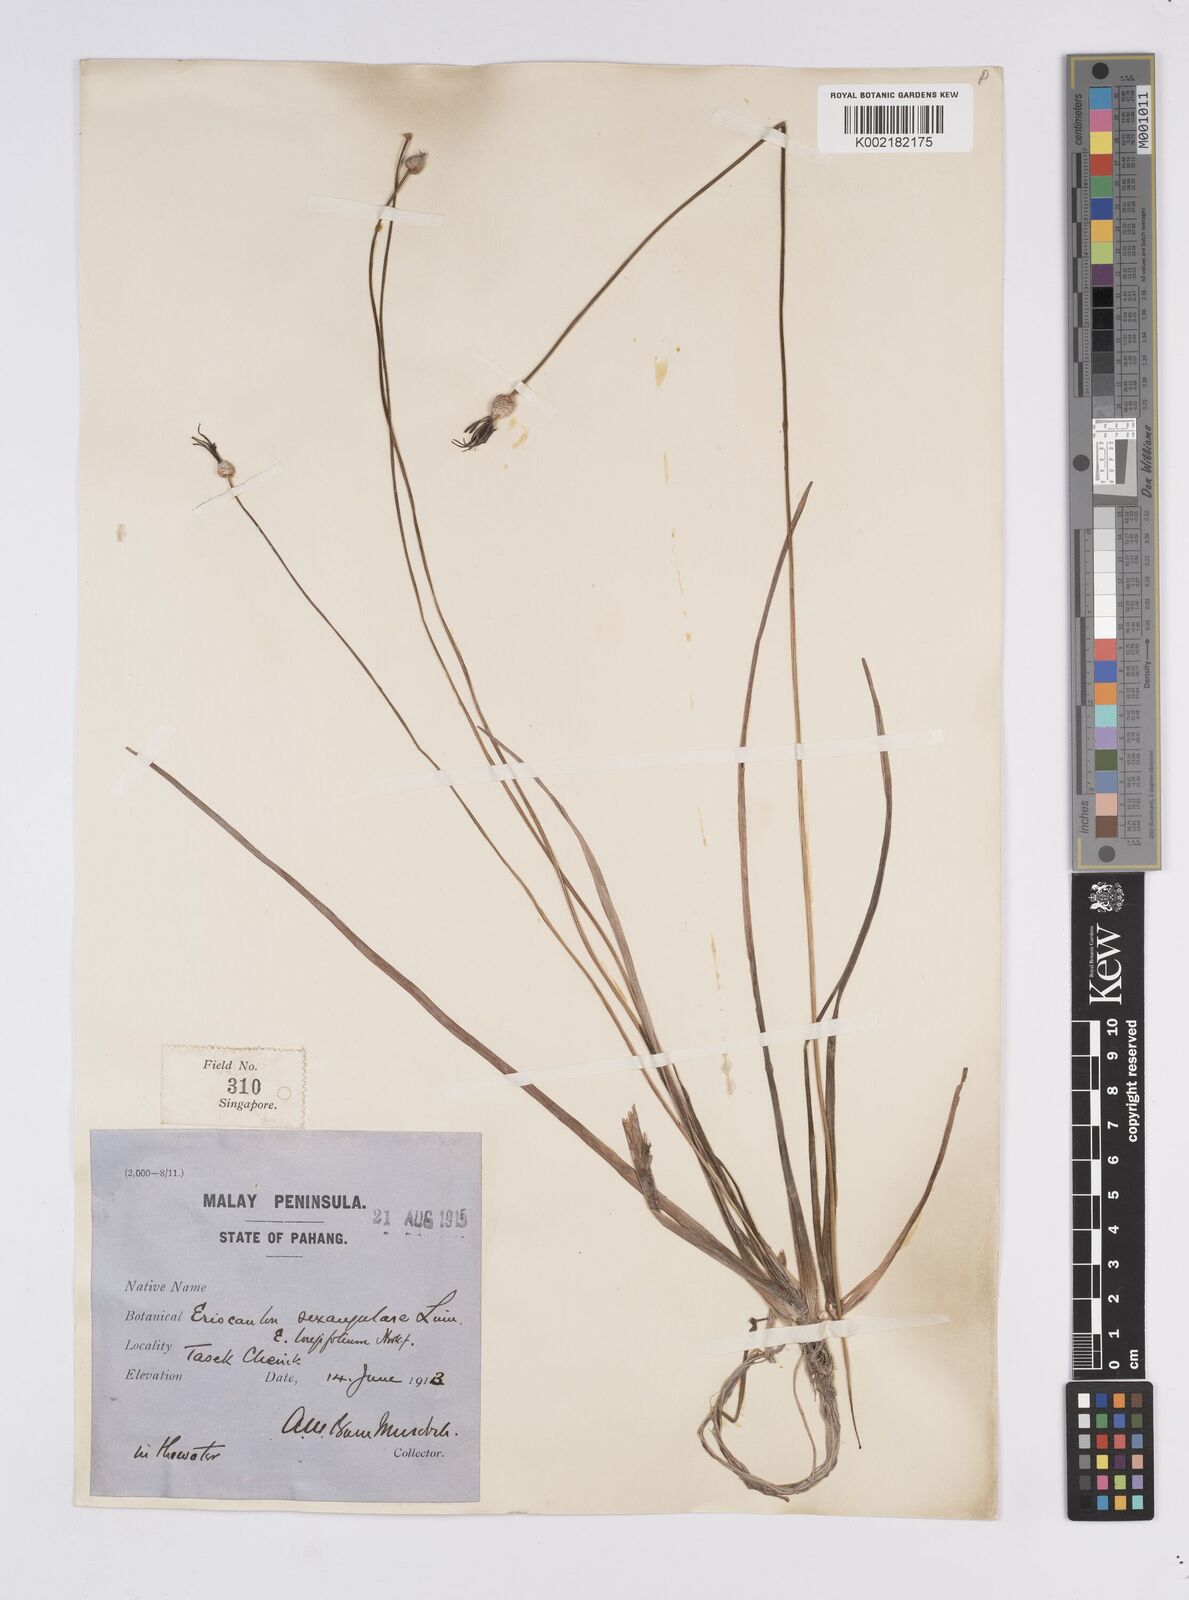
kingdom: Plantae
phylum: Tracheophyta
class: Liliopsida
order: Poales
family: Eriocaulaceae
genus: Eriocaulon
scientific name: Eriocaulon sexangulare
